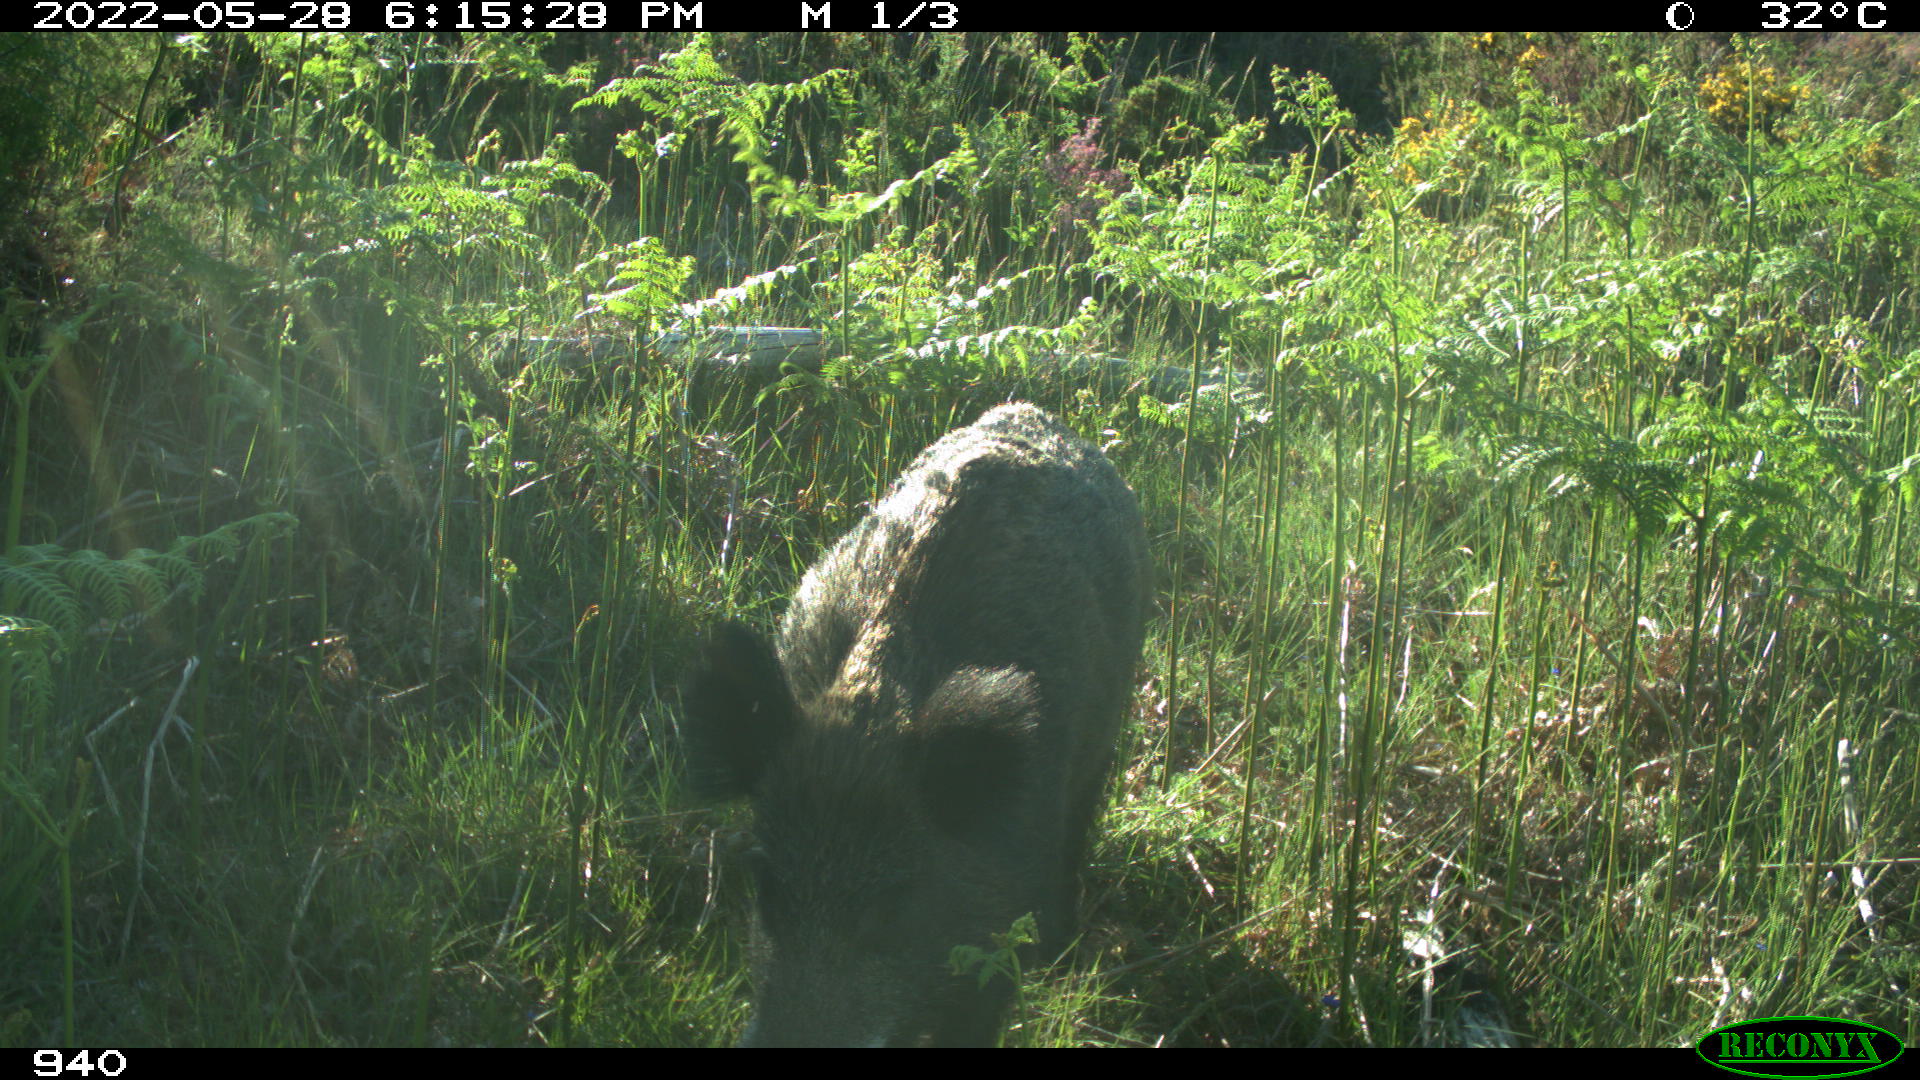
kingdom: Animalia
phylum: Chordata
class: Mammalia
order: Artiodactyla
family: Suidae
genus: Sus
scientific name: Sus scrofa
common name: Wild boar
